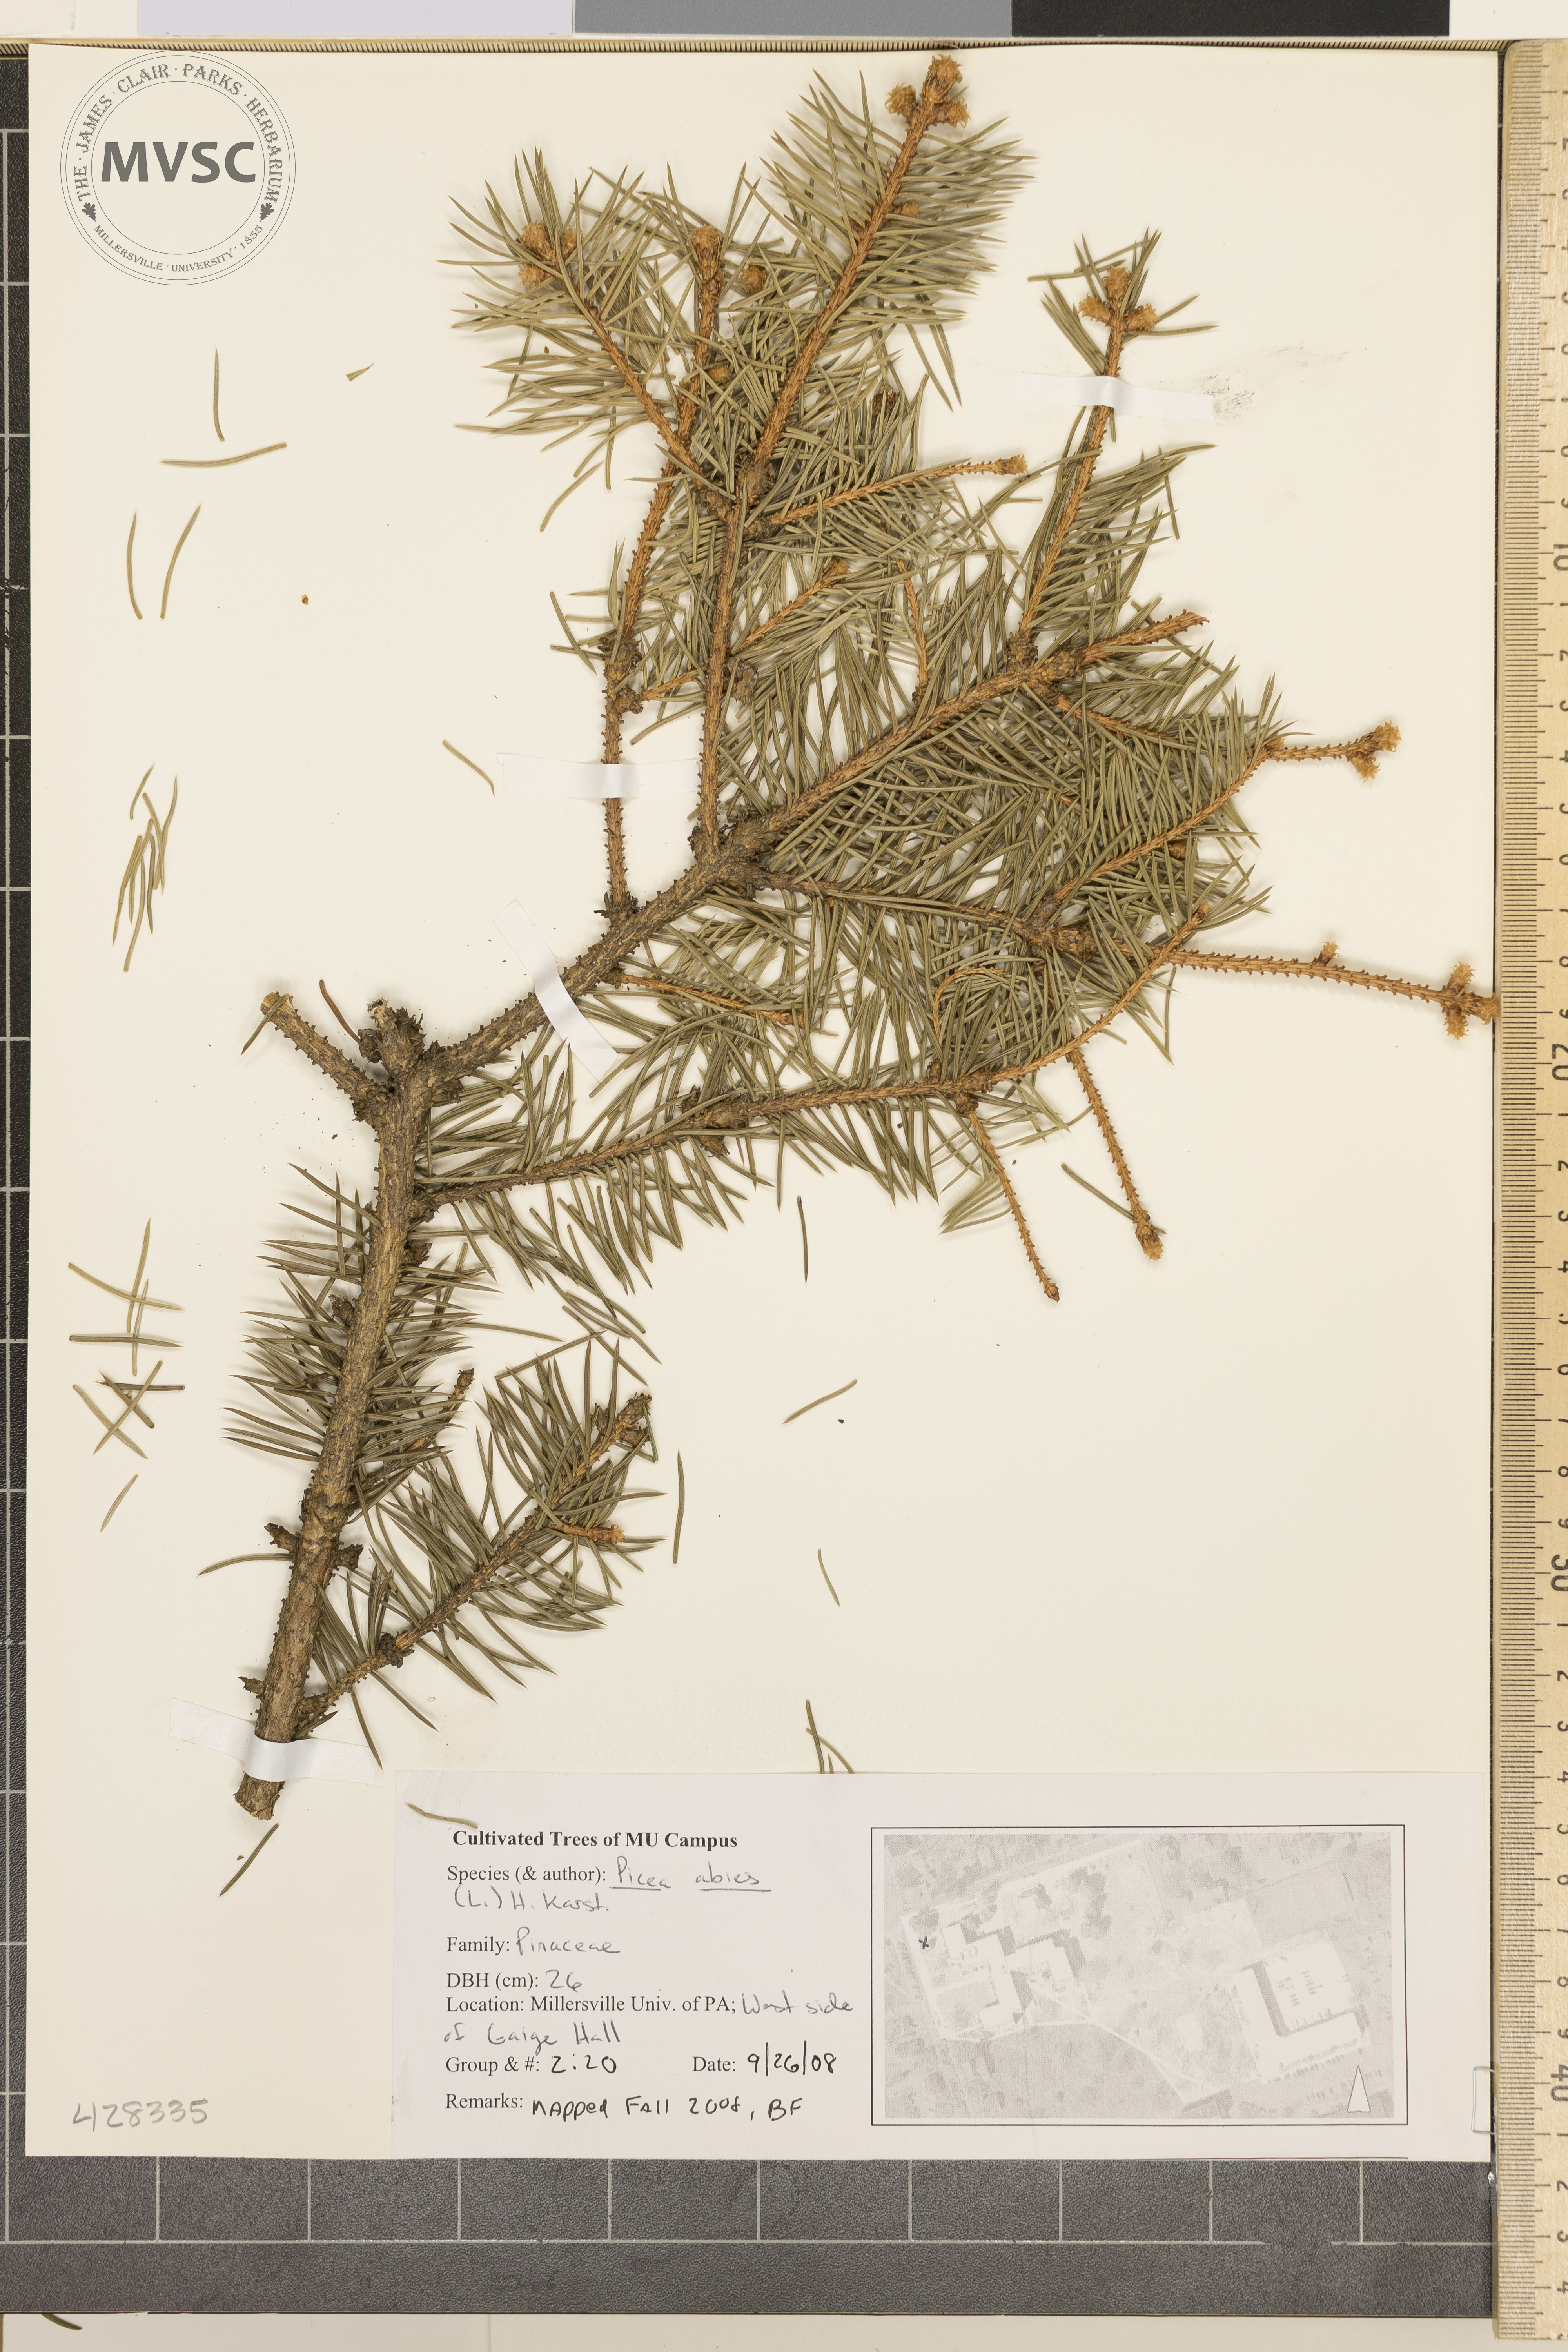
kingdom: Plantae
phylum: Tracheophyta
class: Pinopsida
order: Pinales
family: Pinaceae
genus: Picea
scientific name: Picea abies
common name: Norway Spruce
